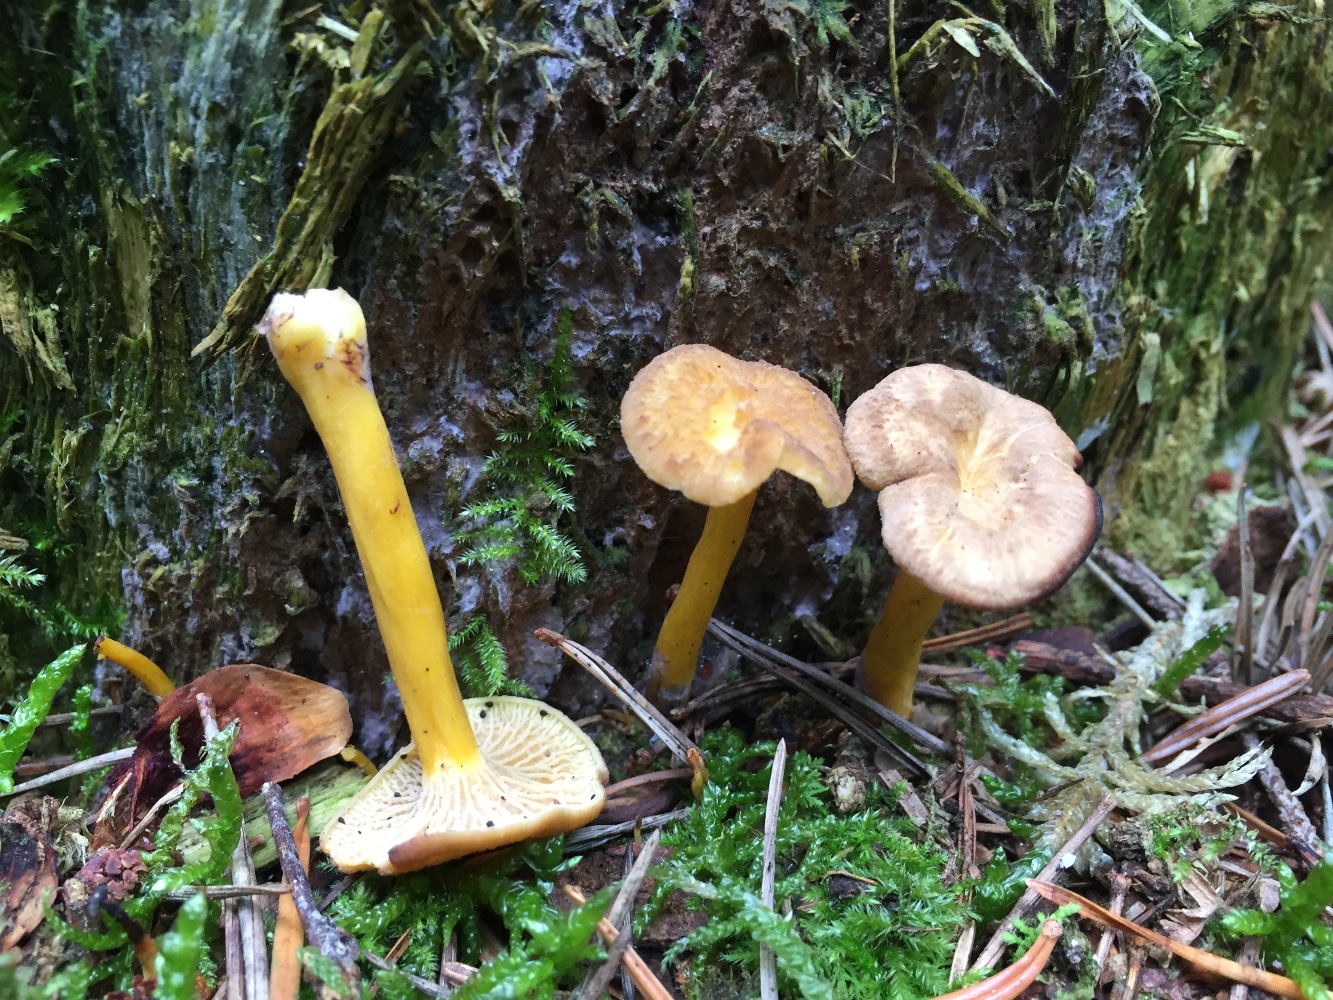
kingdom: Fungi
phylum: Basidiomycota
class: Agaricomycetes
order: Cantharellales
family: Hydnaceae
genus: Craterellus
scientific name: Craterellus tubaeformis
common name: tragt-kantarel
